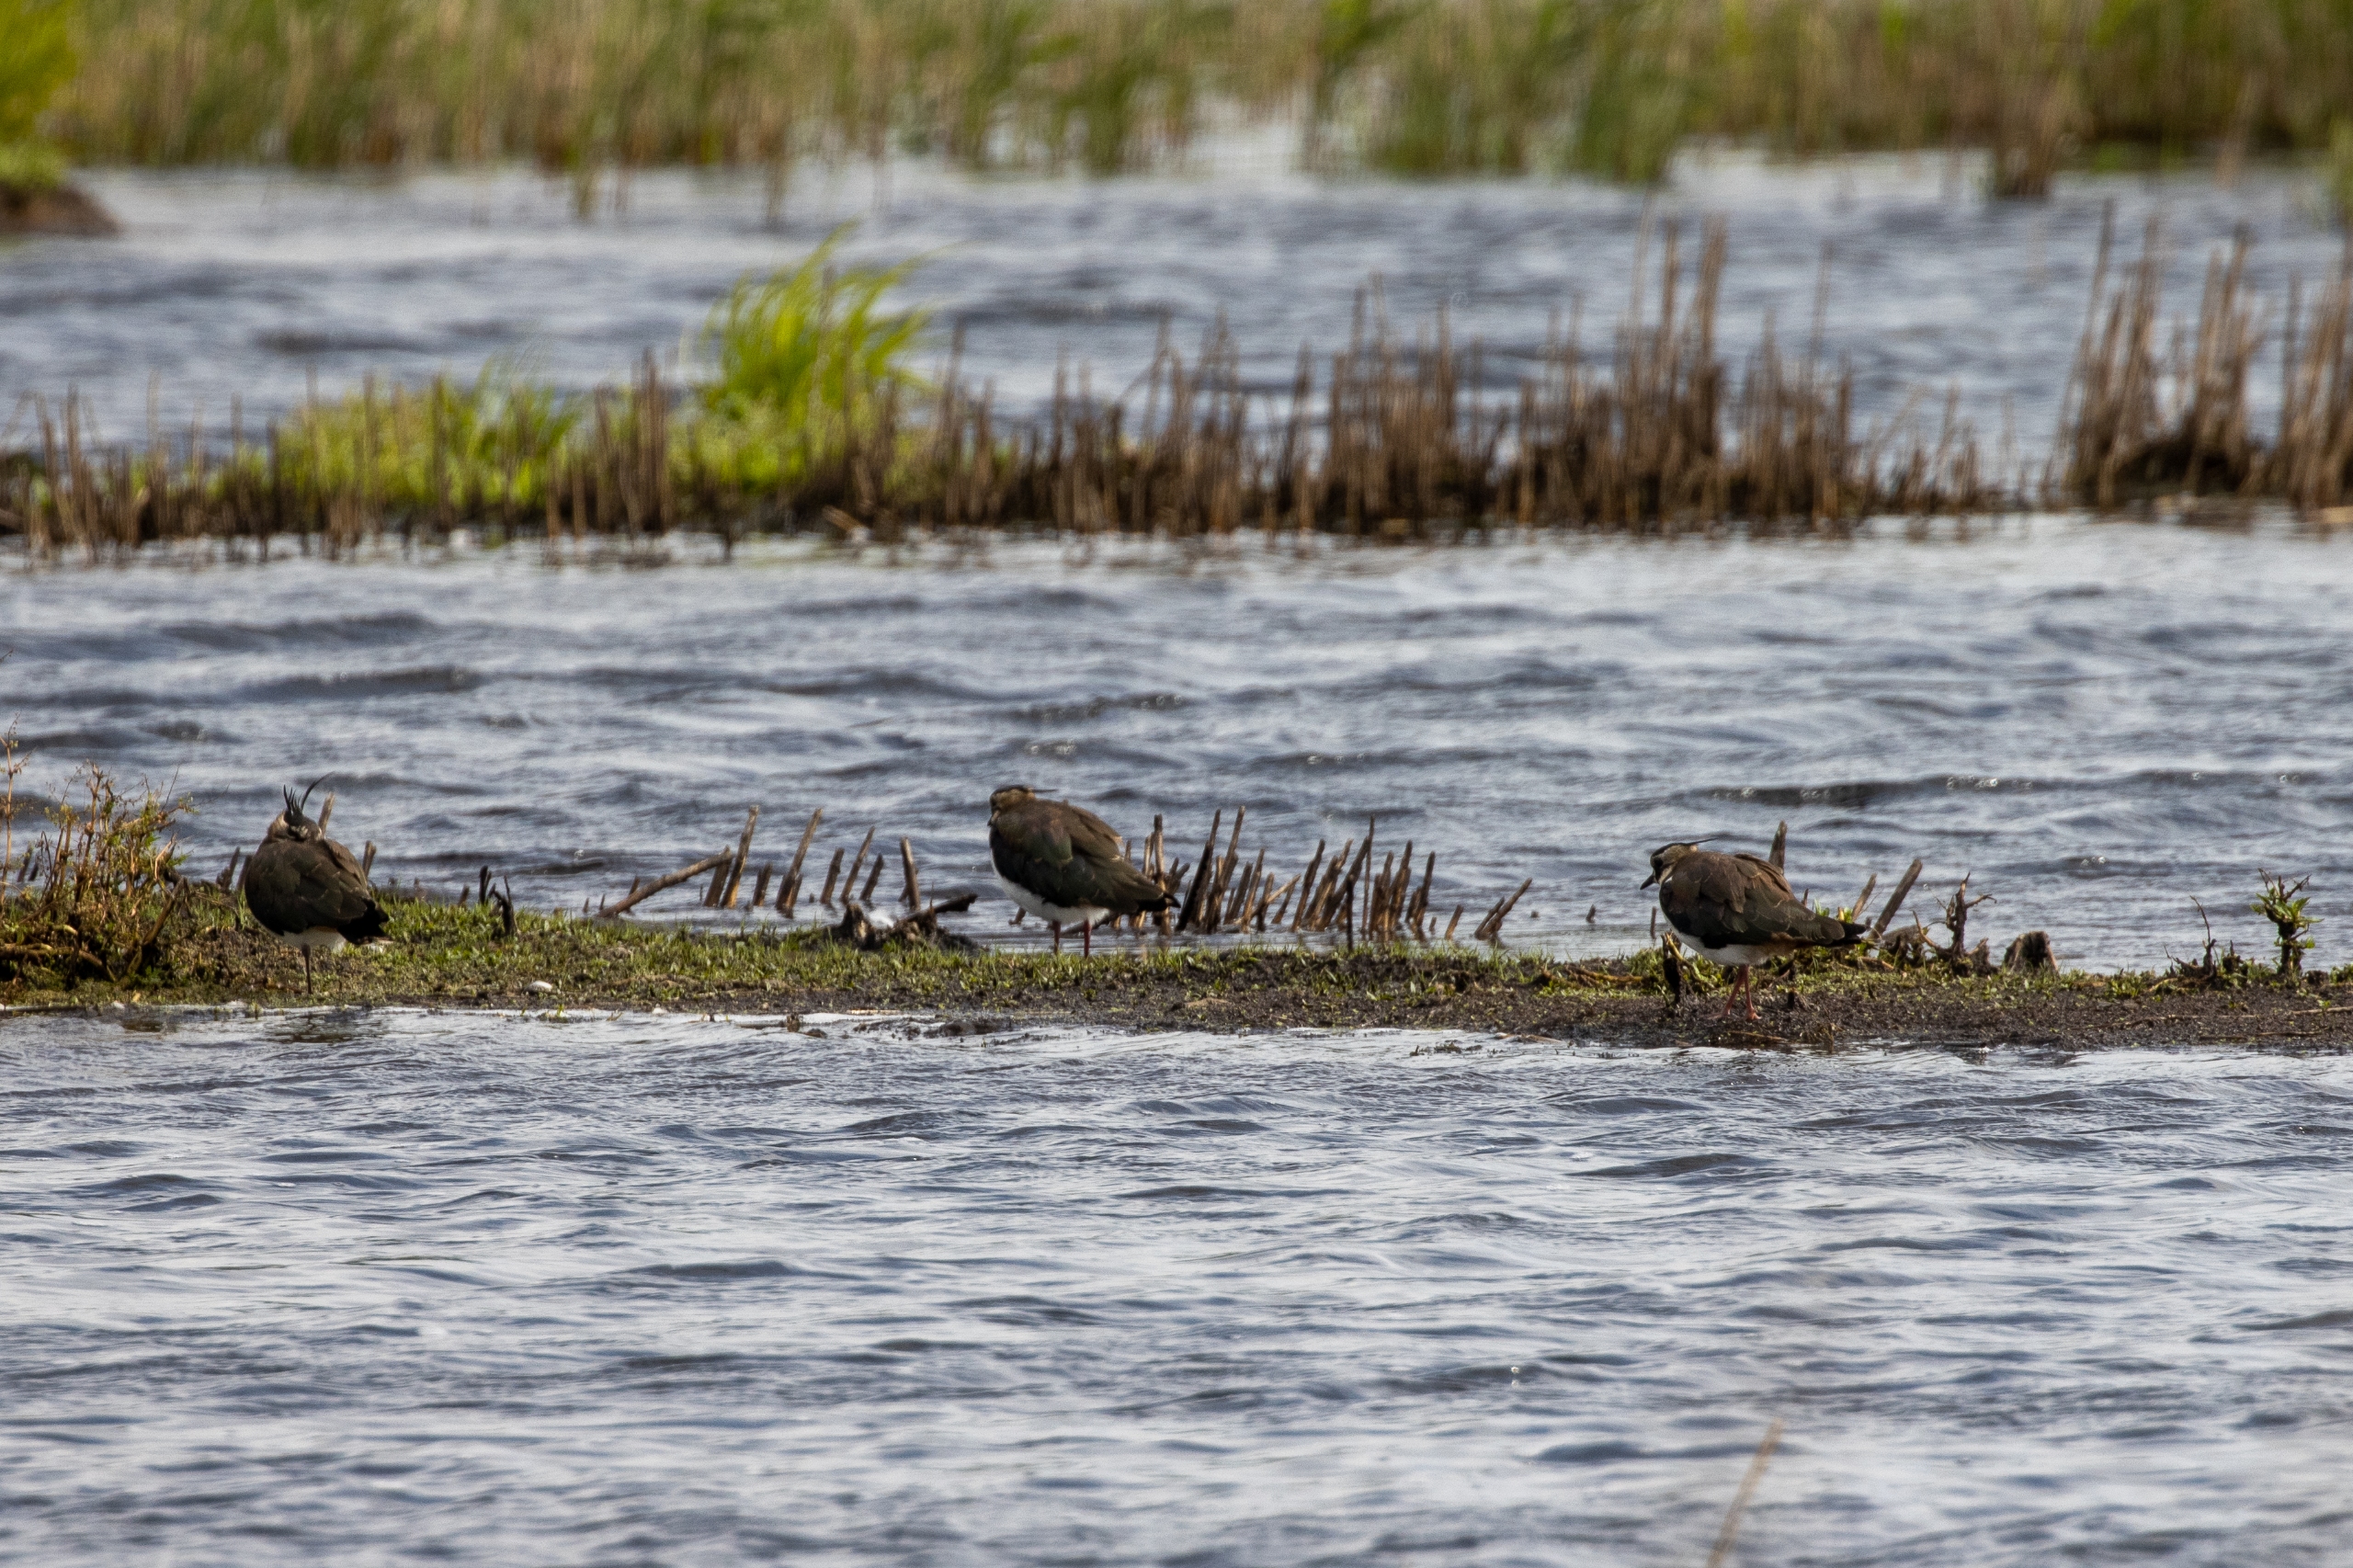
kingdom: Animalia
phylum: Chordata
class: Aves
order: Charadriiformes
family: Charadriidae
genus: Vanellus
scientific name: Vanellus vanellus
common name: Vibe
